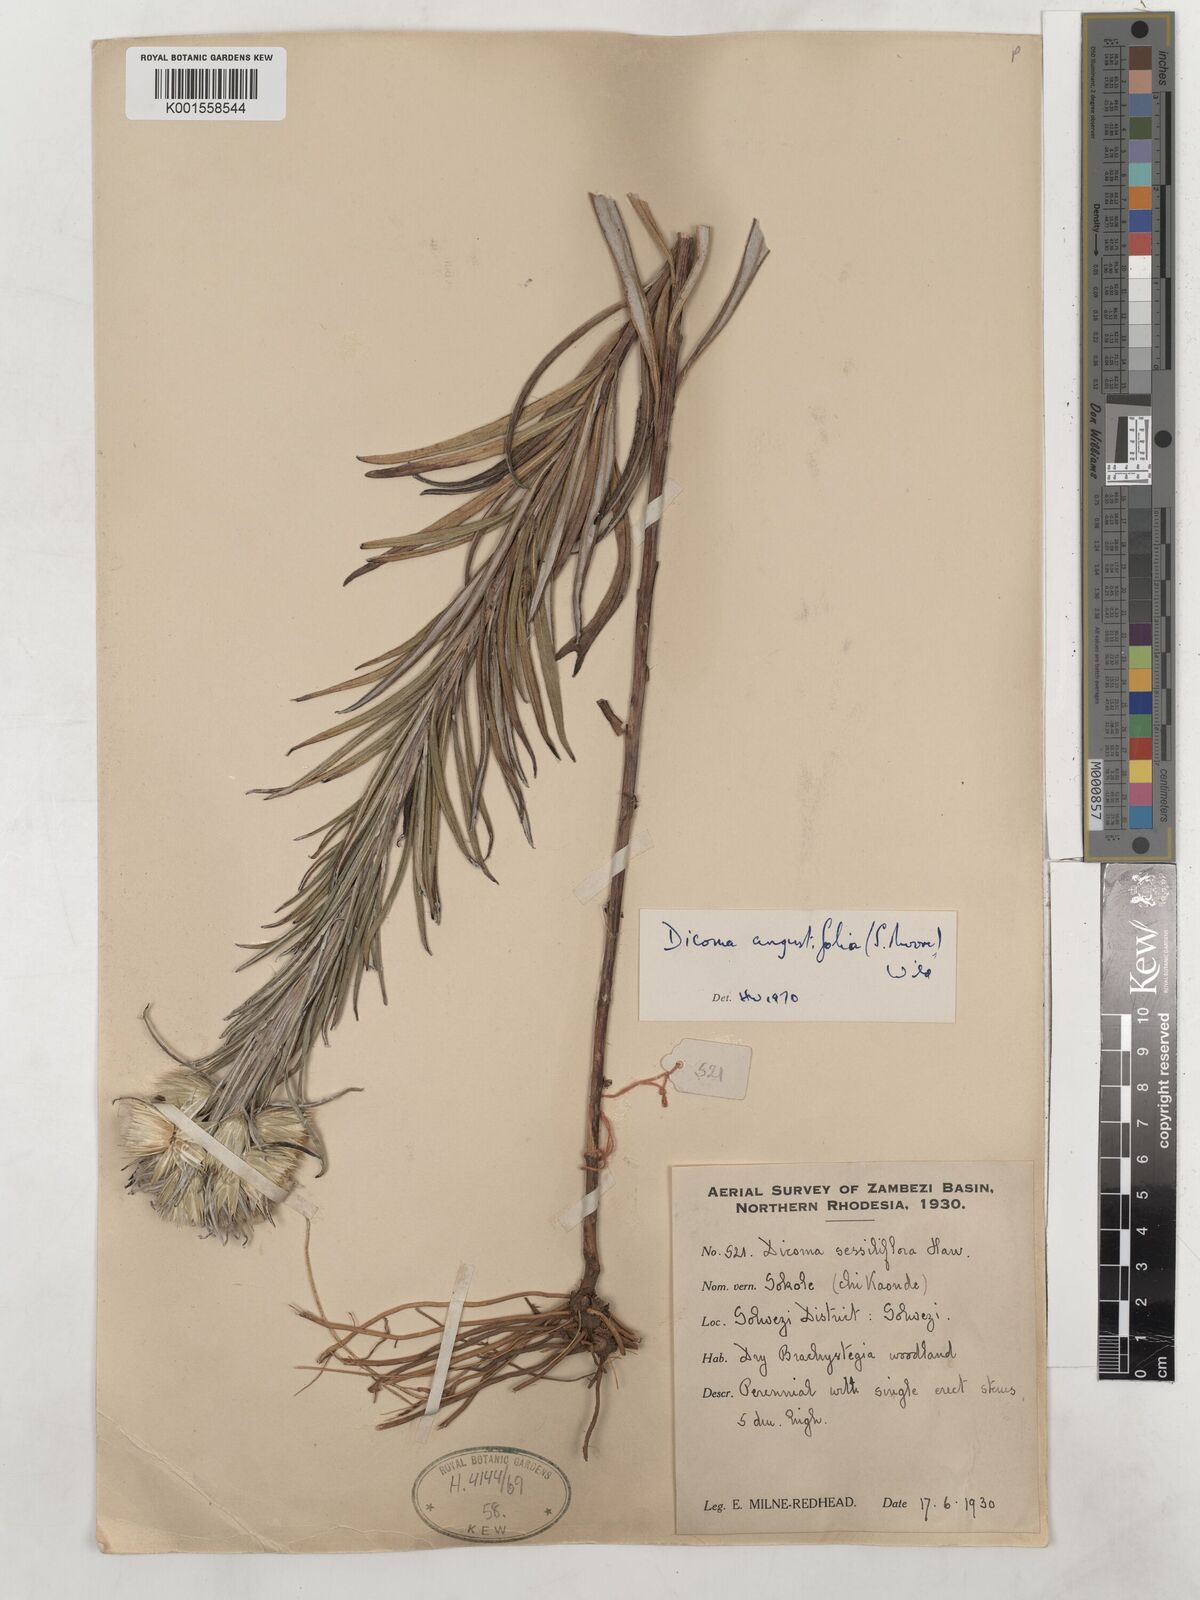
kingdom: Plantae
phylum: Tracheophyta
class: Magnoliopsida
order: Asterales
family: Asteraceae
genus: Macledium
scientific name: Macledium poggei
